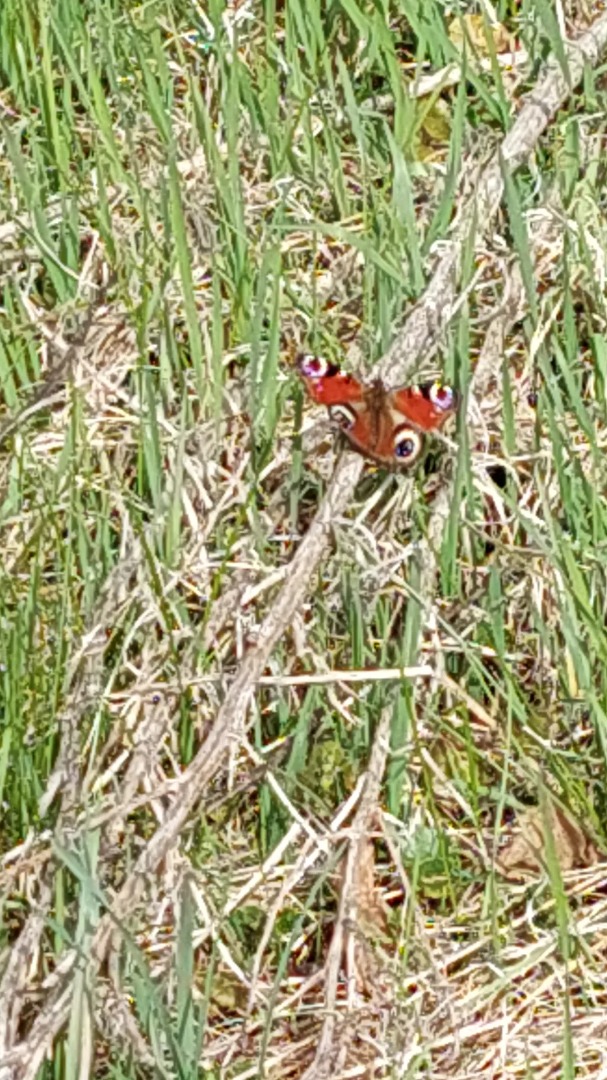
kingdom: Animalia
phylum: Arthropoda
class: Insecta
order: Lepidoptera
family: Nymphalidae
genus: Aglais
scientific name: Aglais io
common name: Dagpåfugleøje
